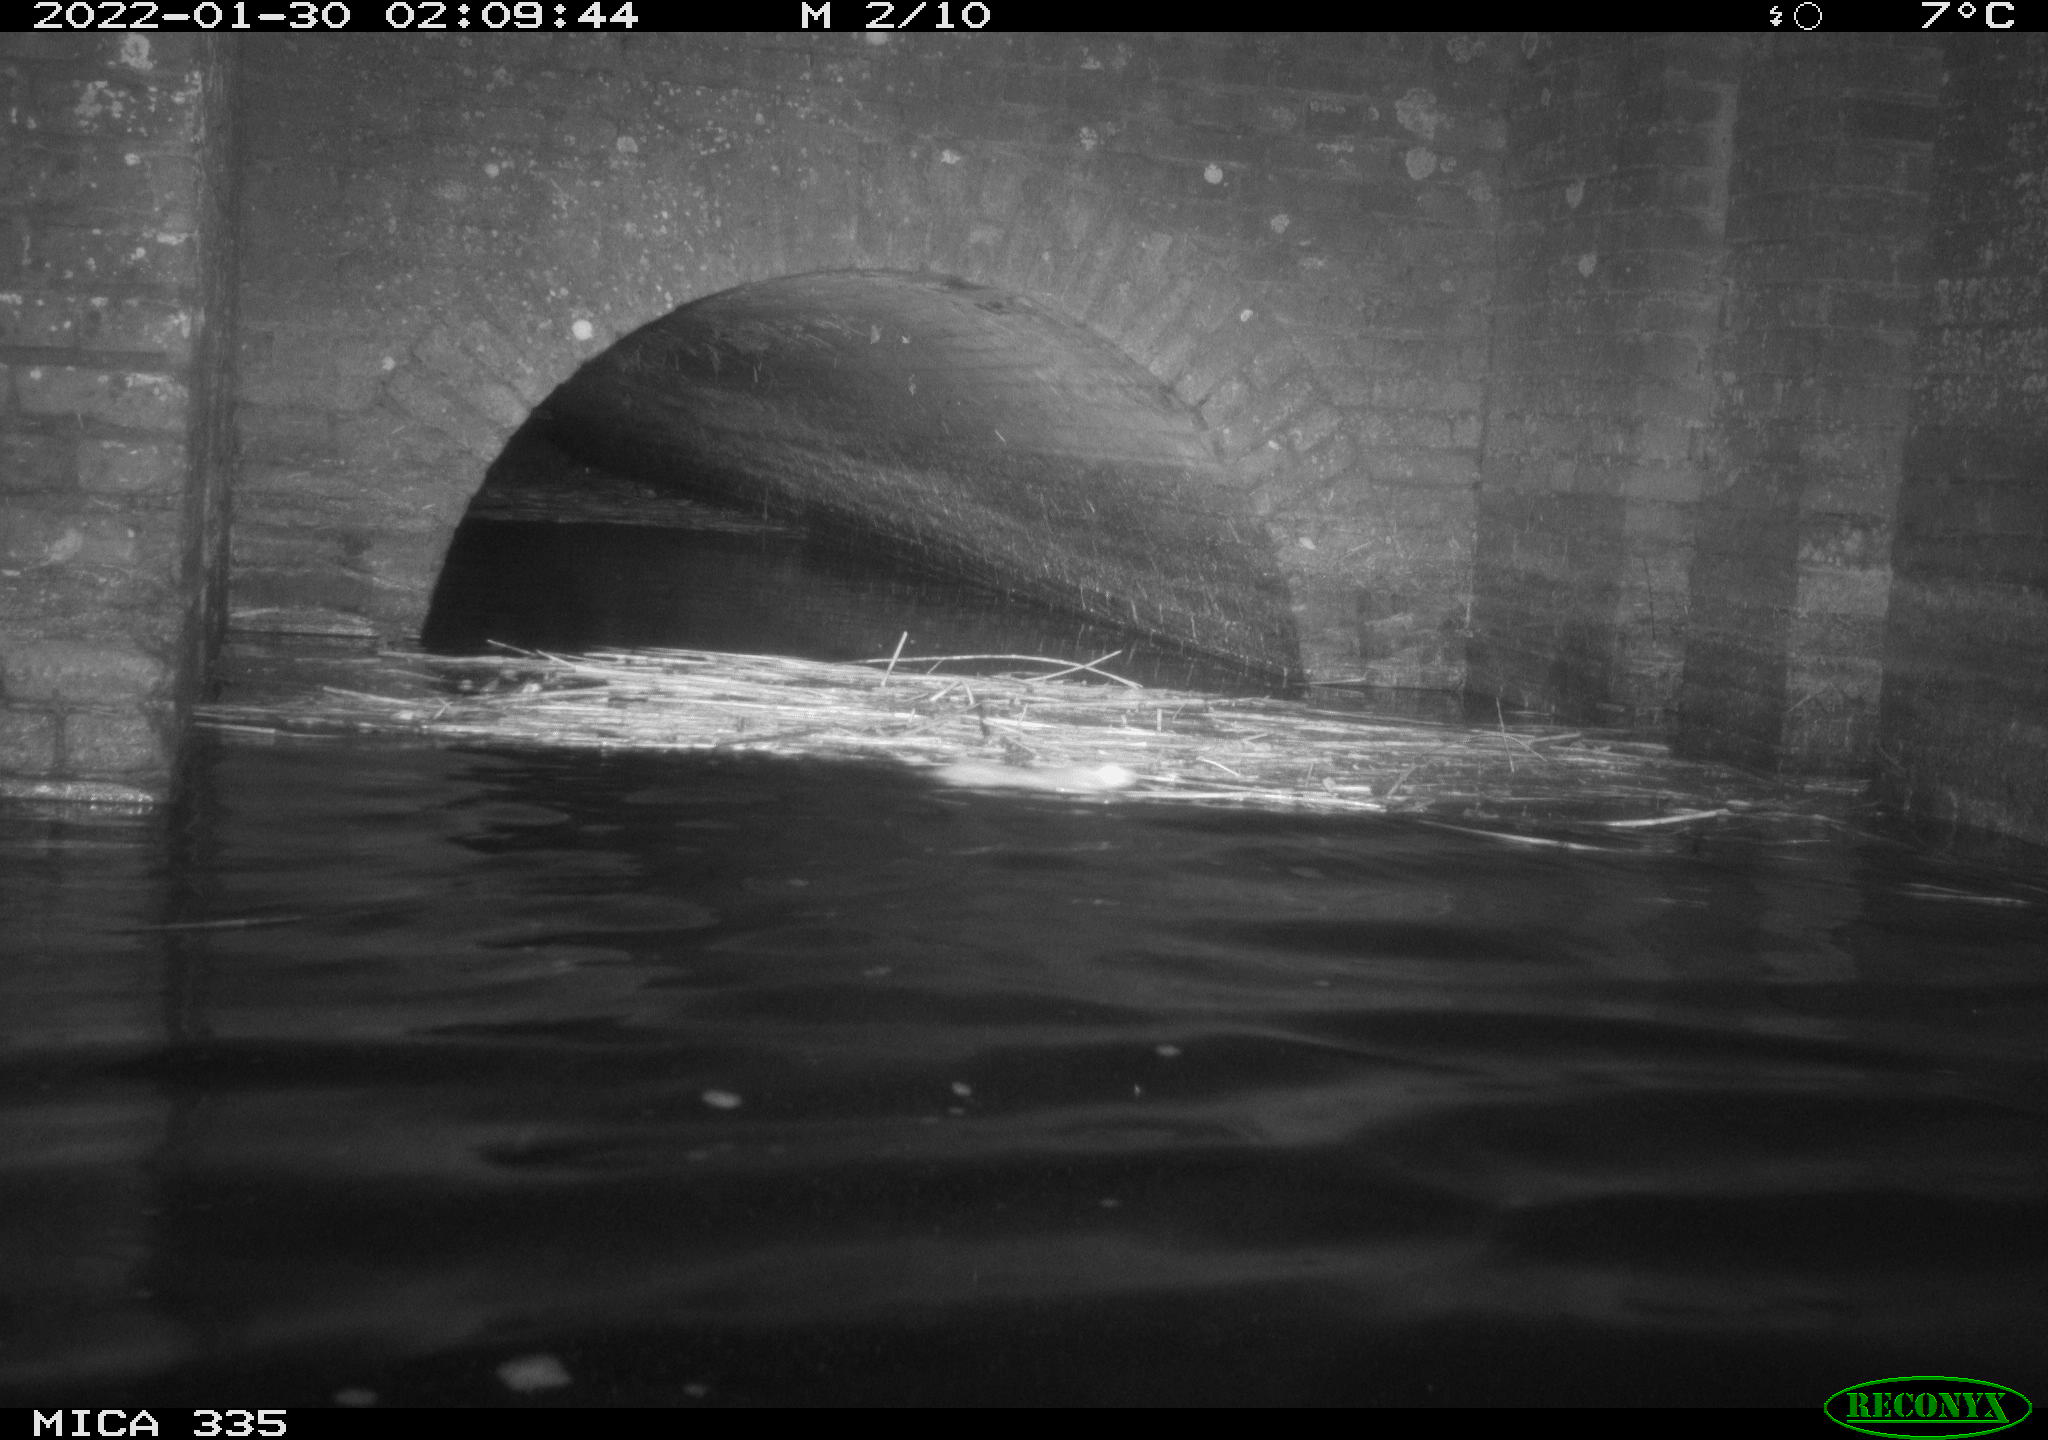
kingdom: Animalia
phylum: Chordata
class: Mammalia
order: Rodentia
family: Muridae
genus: Rattus
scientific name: Rattus norvegicus
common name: Brown rat
